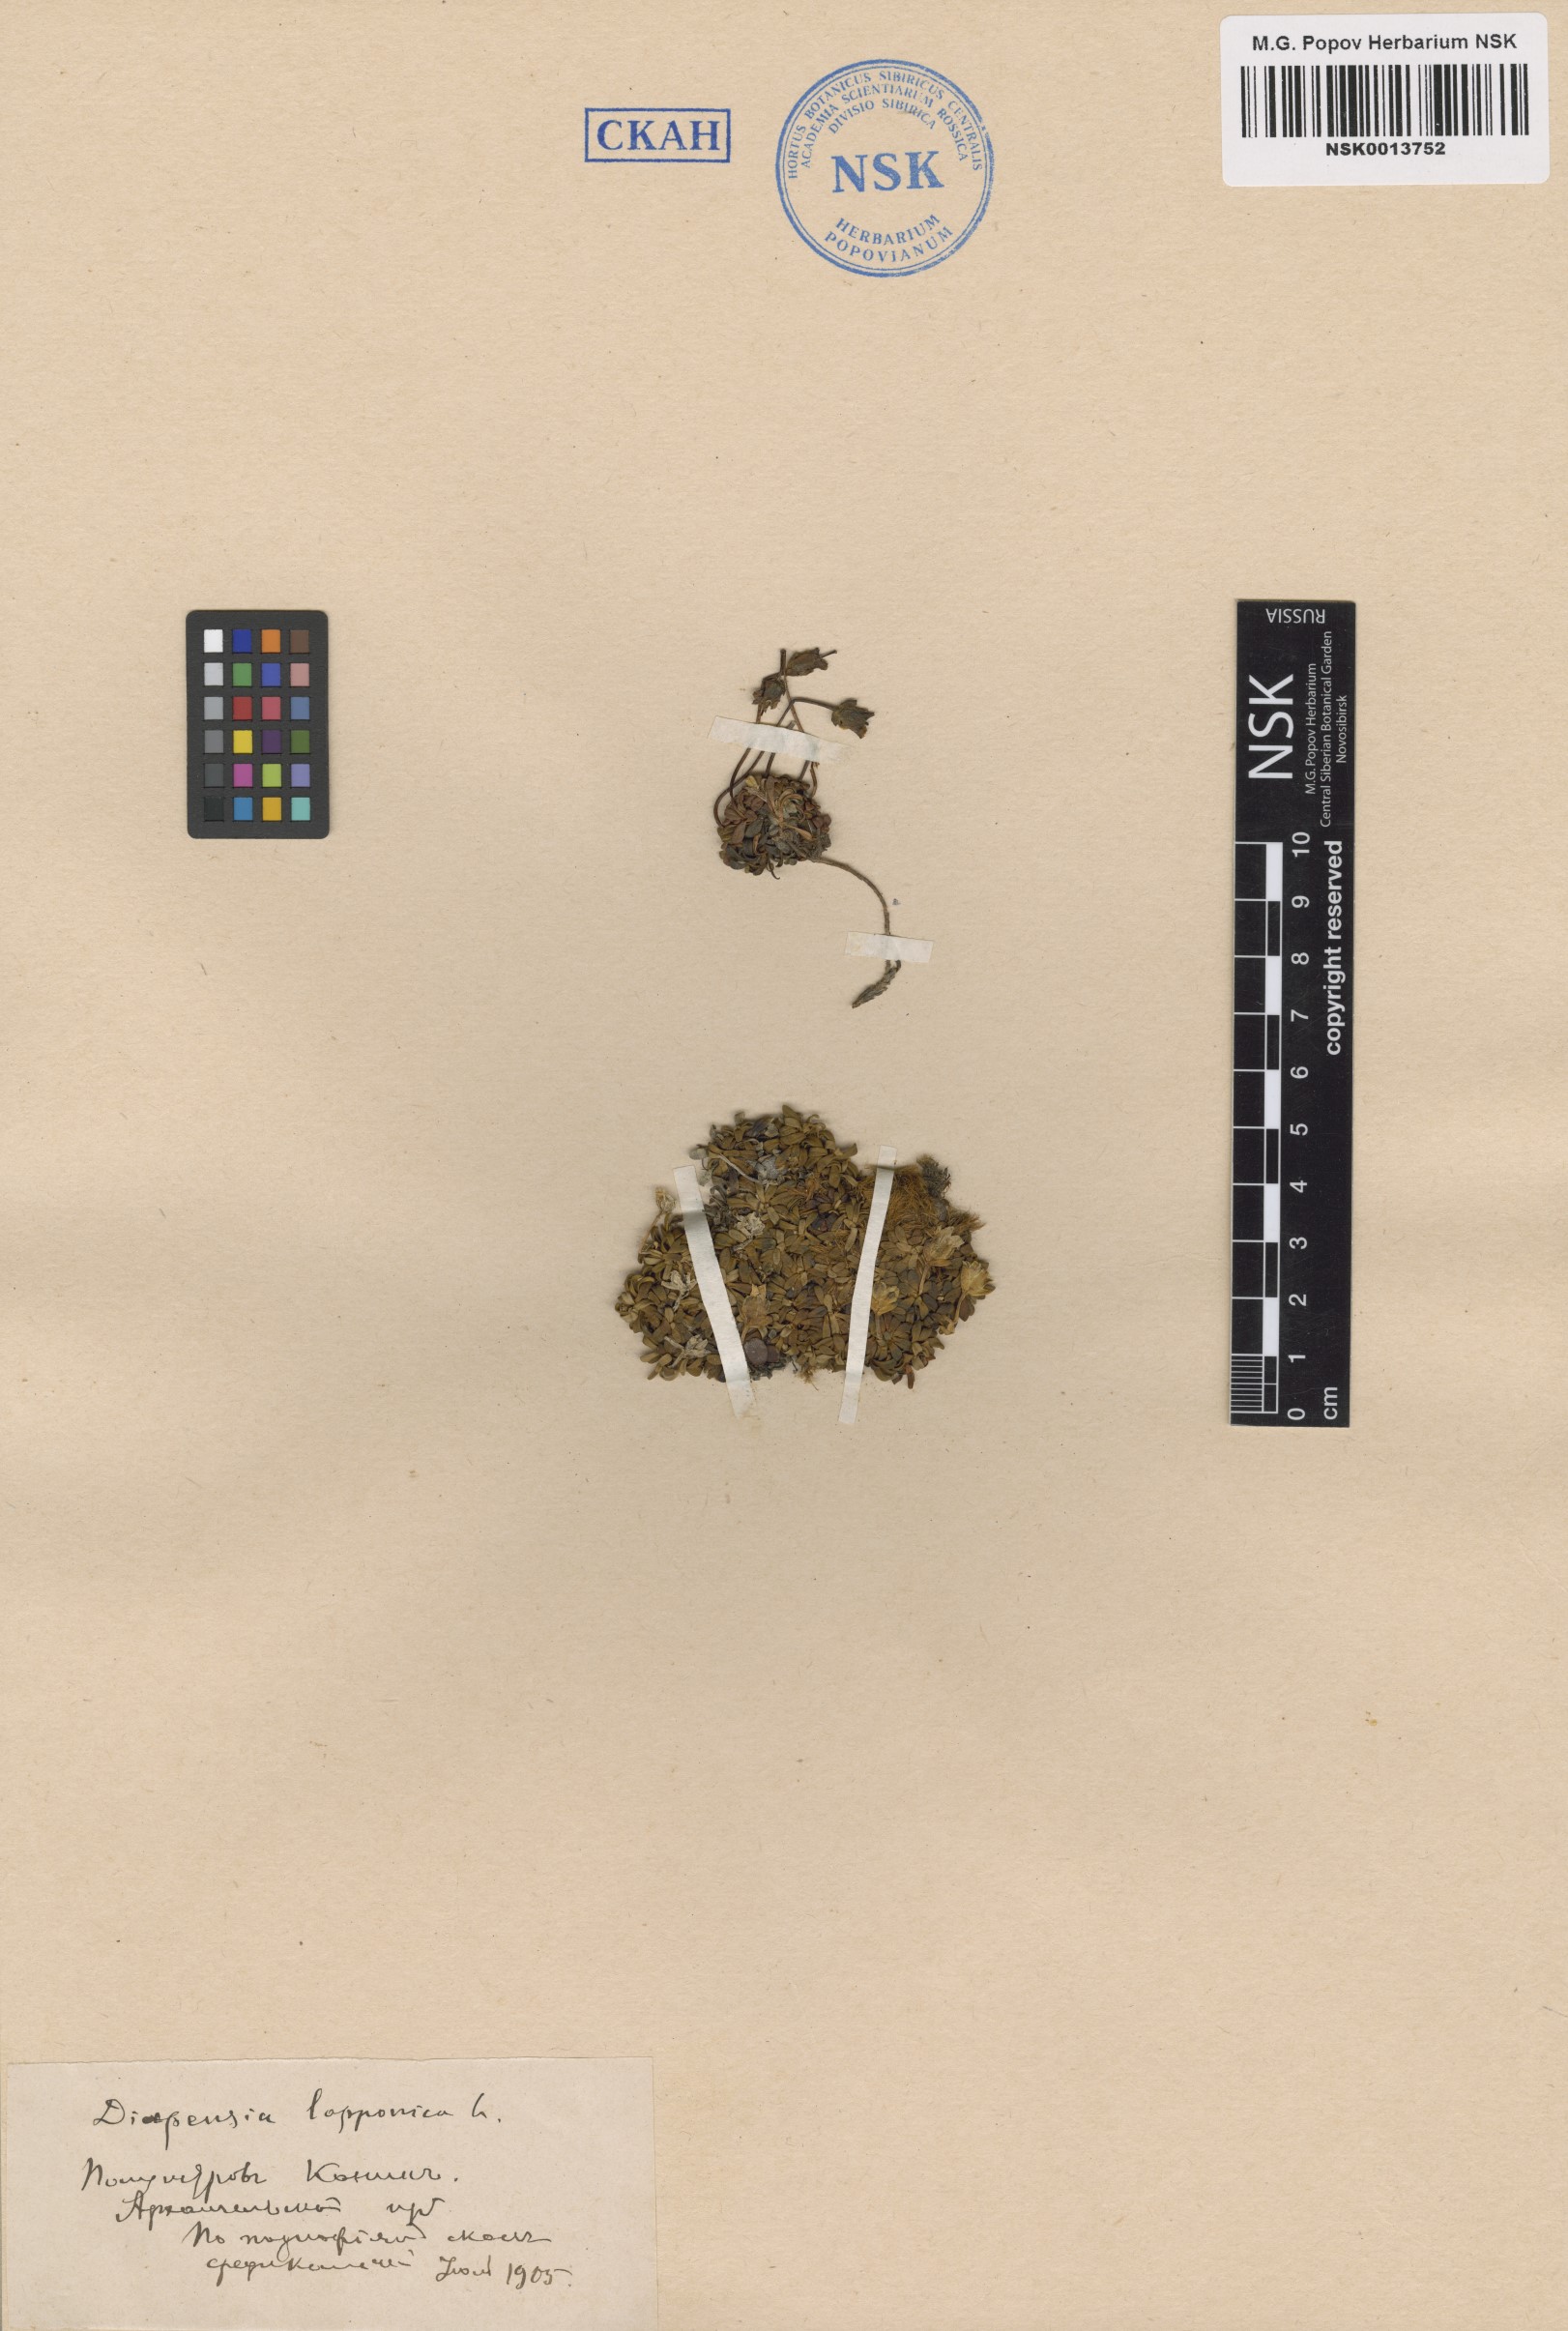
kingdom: Plantae
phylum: Tracheophyta
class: Magnoliopsida
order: Ericales
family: Diapensiaceae
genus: Diapensia
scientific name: Diapensia lapponica
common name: Diapensia
